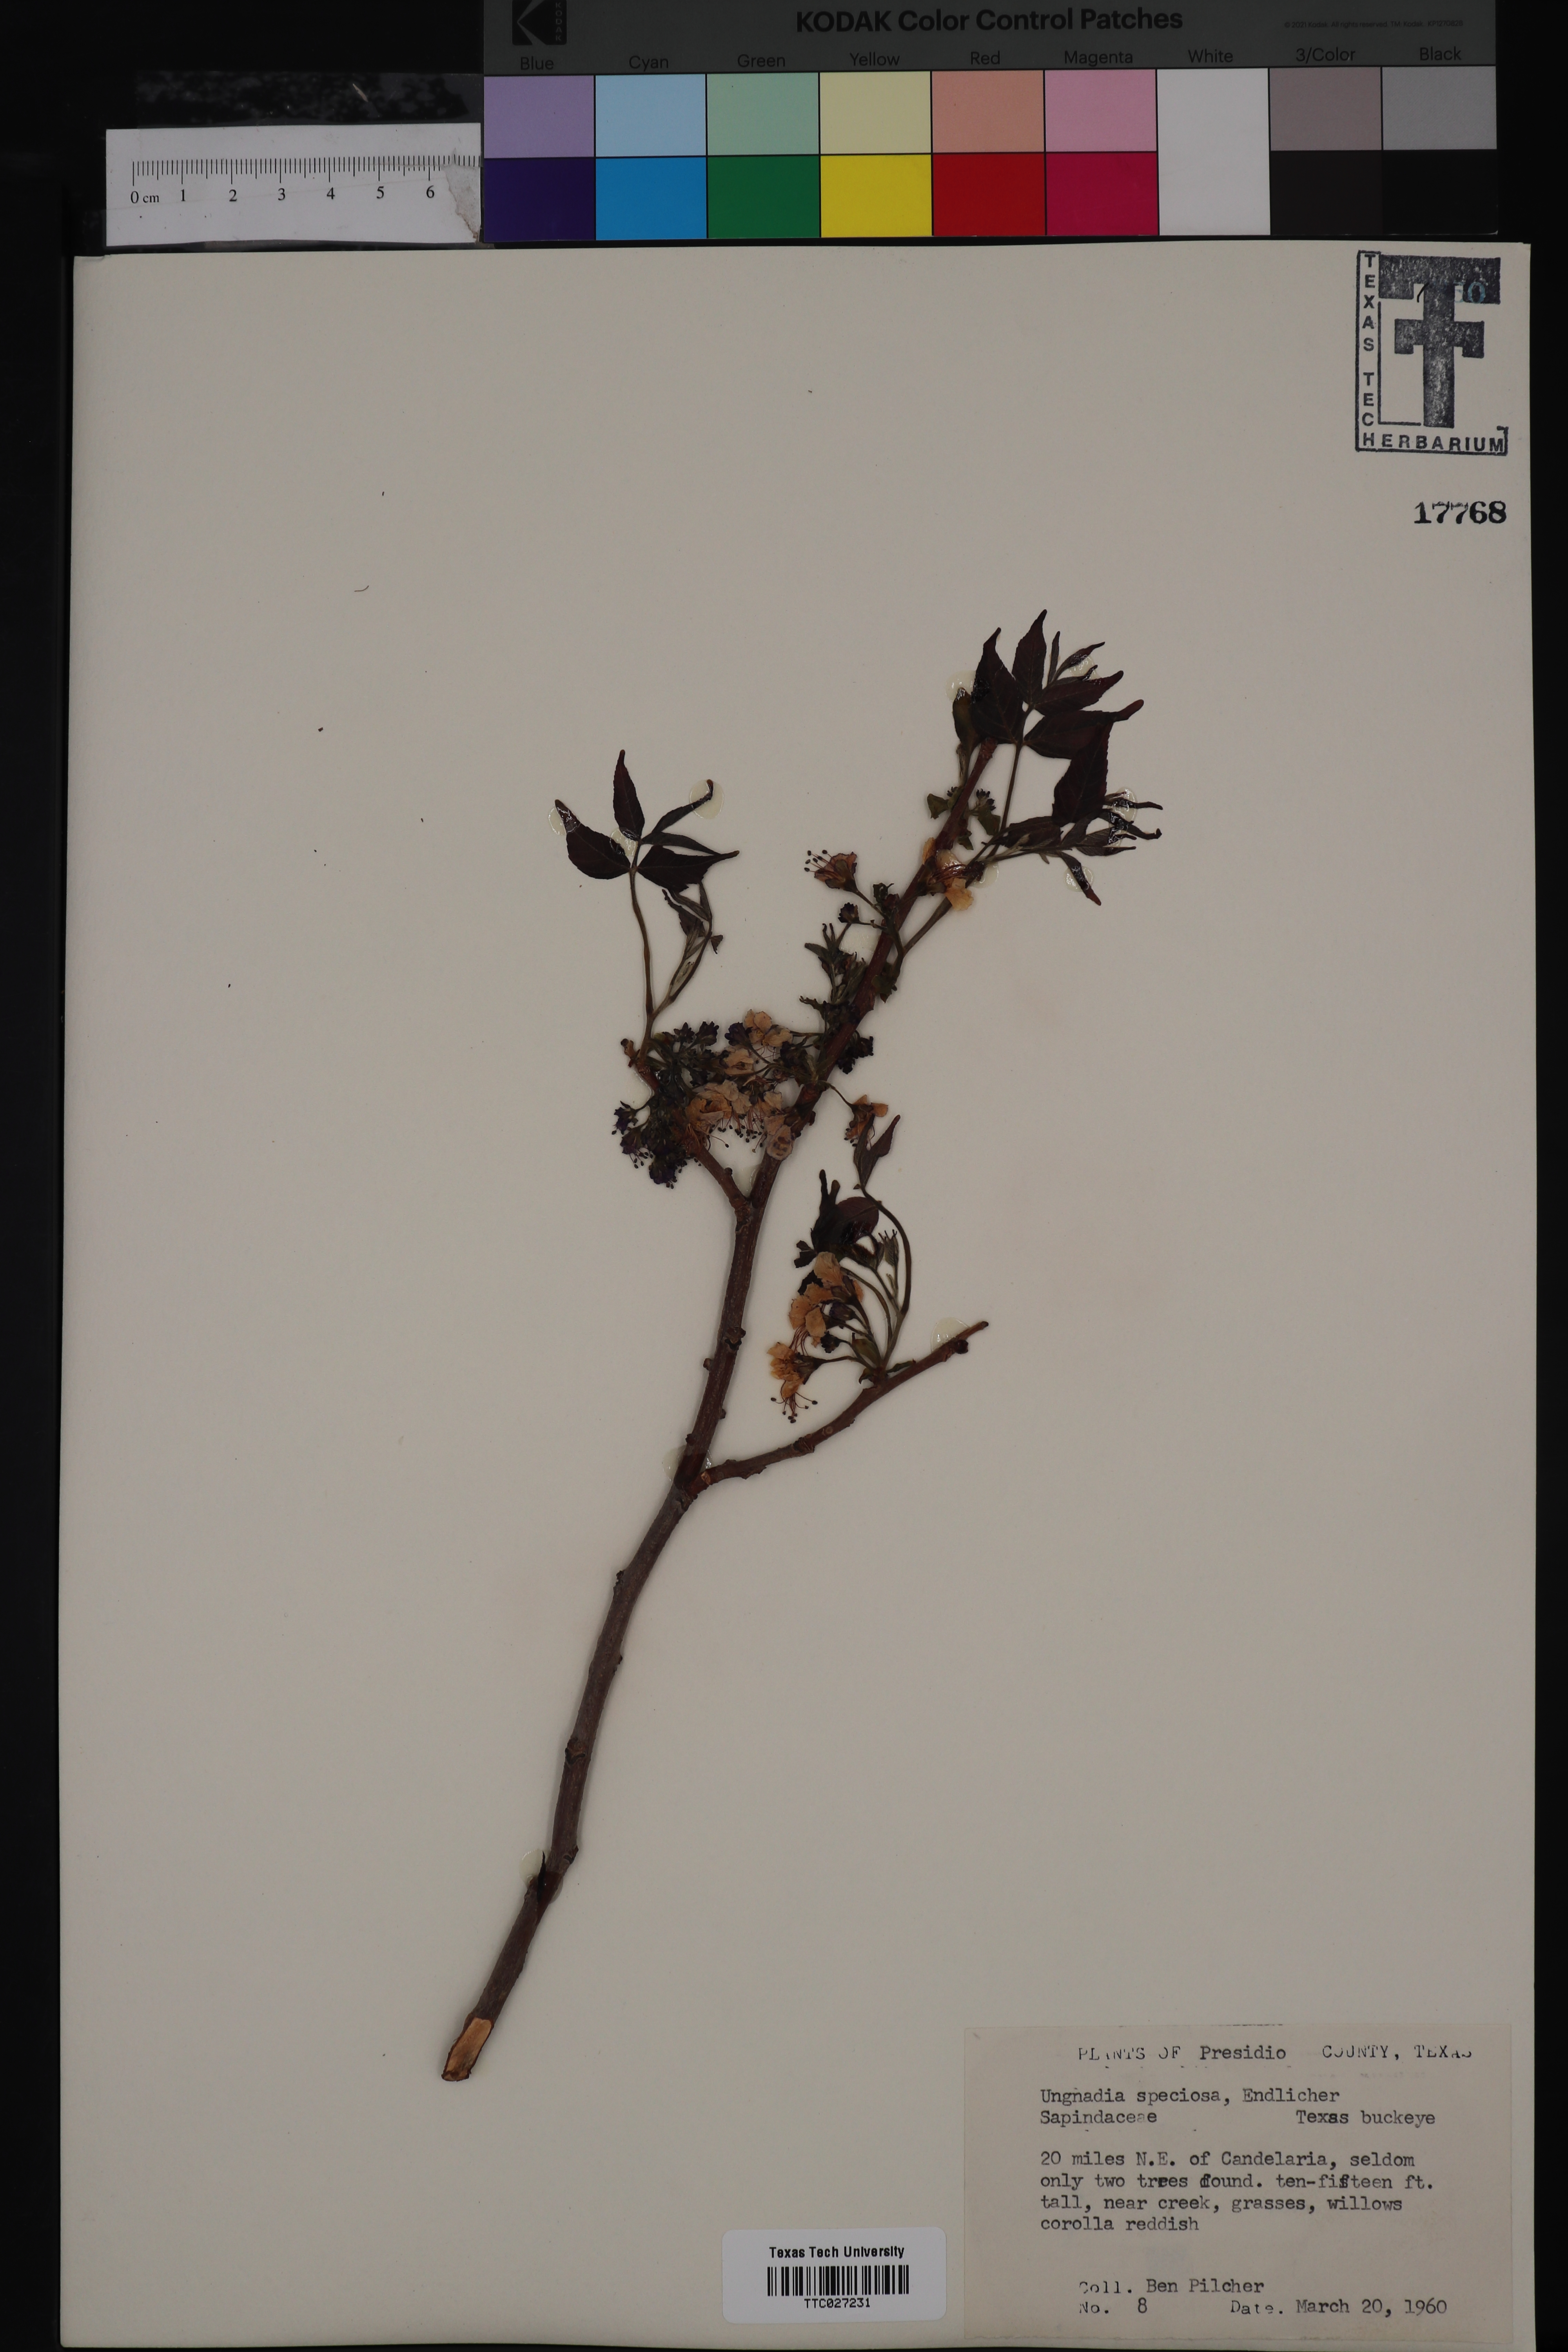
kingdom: Plantae
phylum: Tracheophyta
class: Magnoliopsida
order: Sapindales
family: Sapindaceae
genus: Ungnadia
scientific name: Ungnadia speciosa
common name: Texas-buckeye
